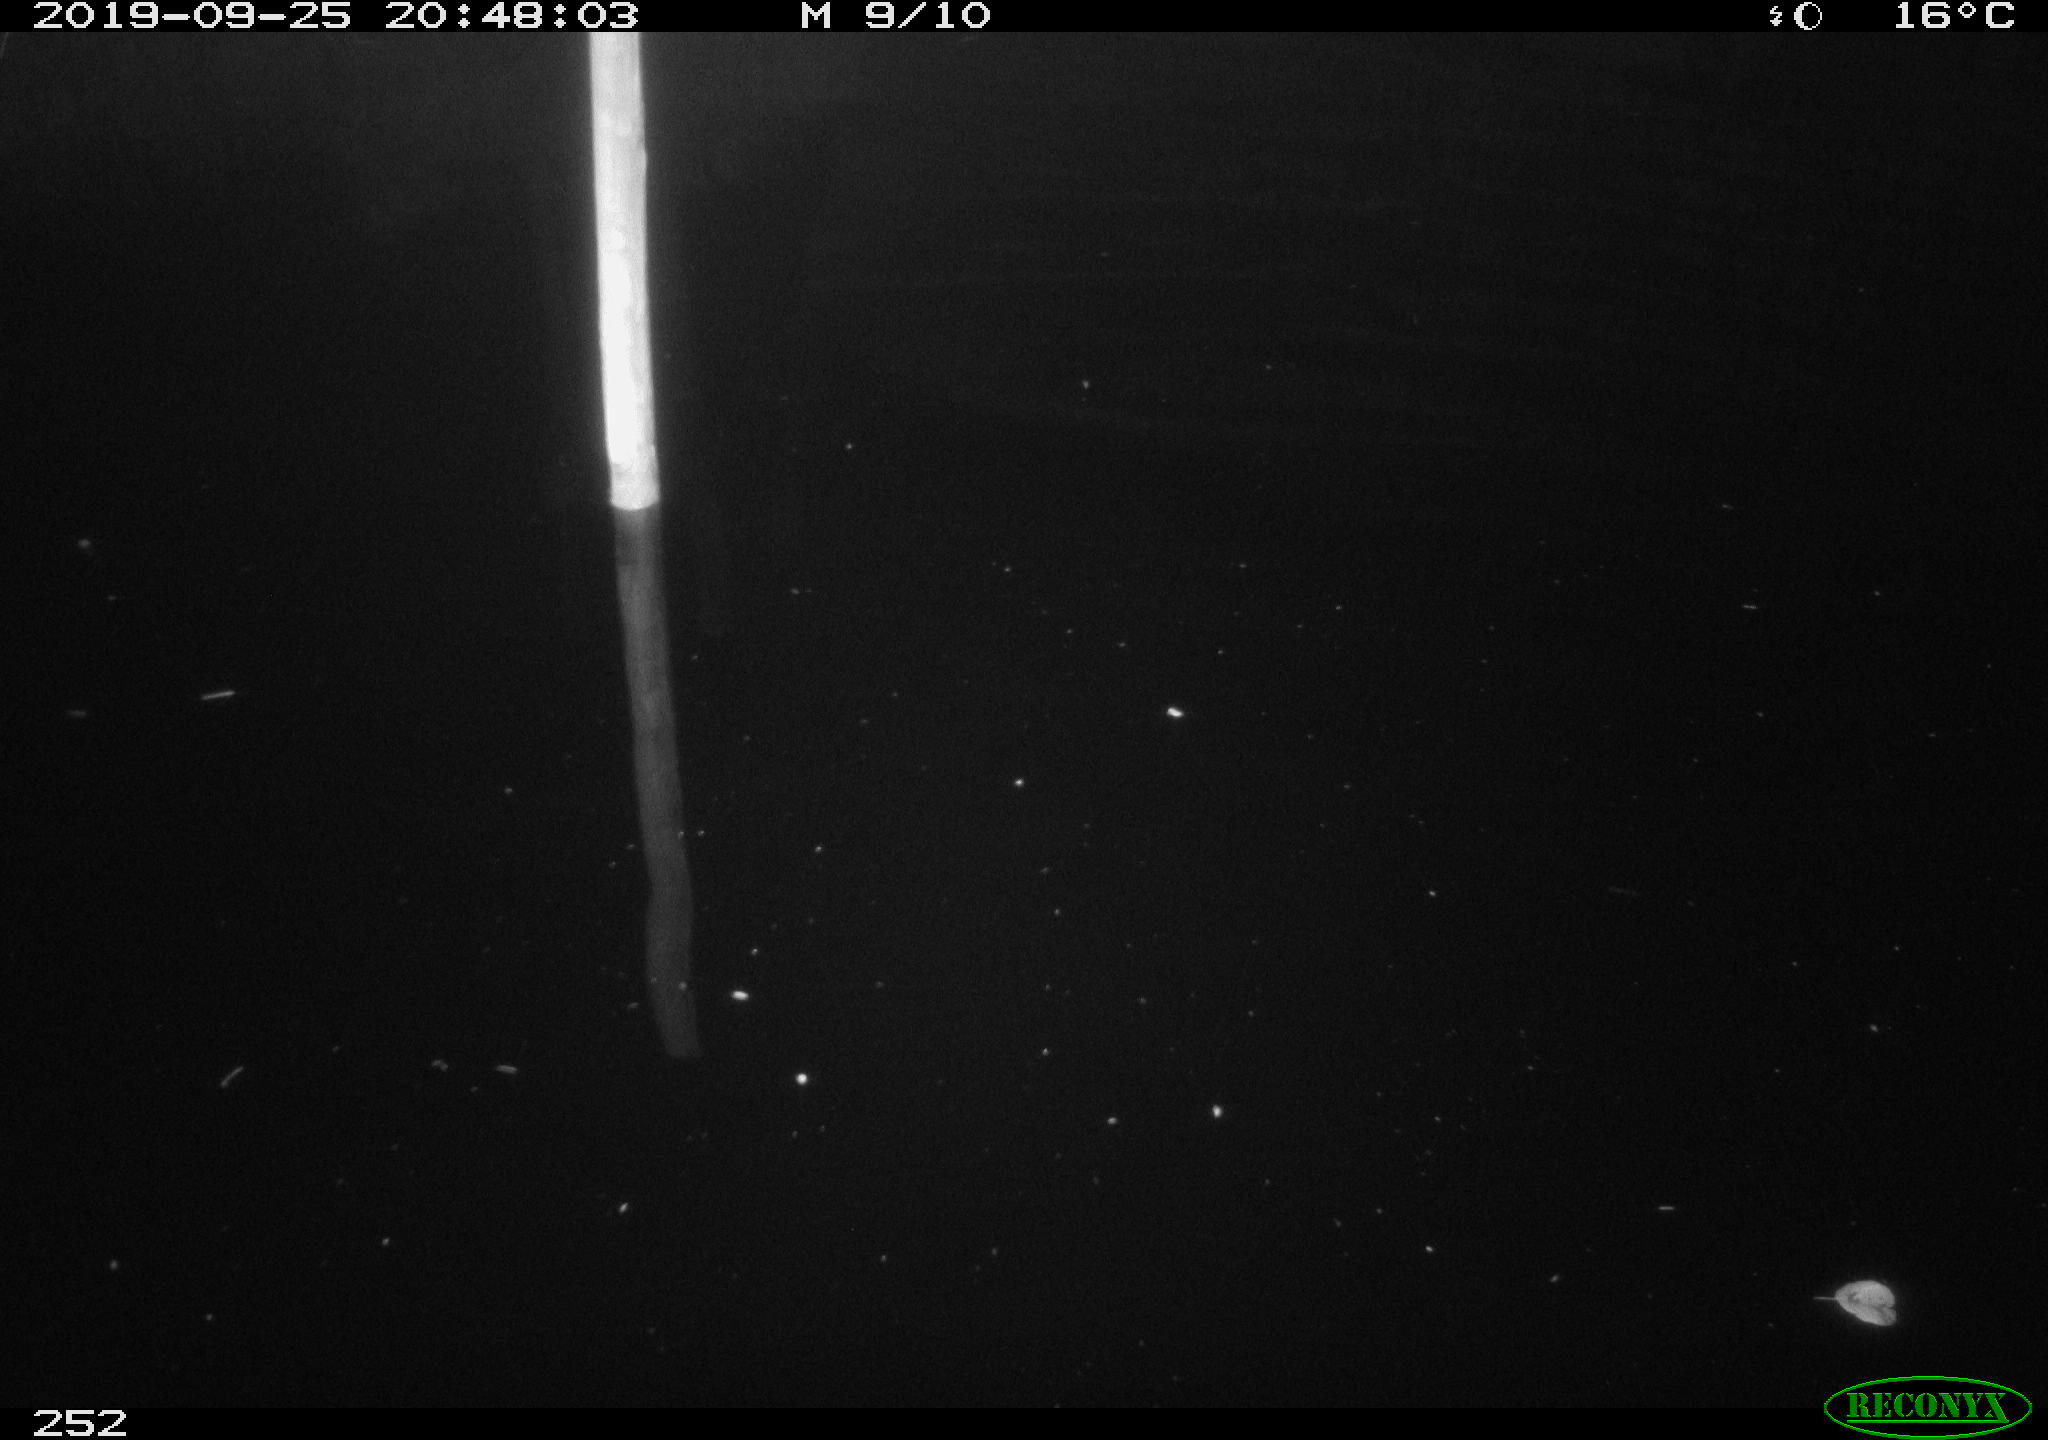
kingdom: Animalia
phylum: Chordata
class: Aves
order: Anseriformes
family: Anatidae
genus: Anas
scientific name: Anas platyrhynchos
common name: Mallard
